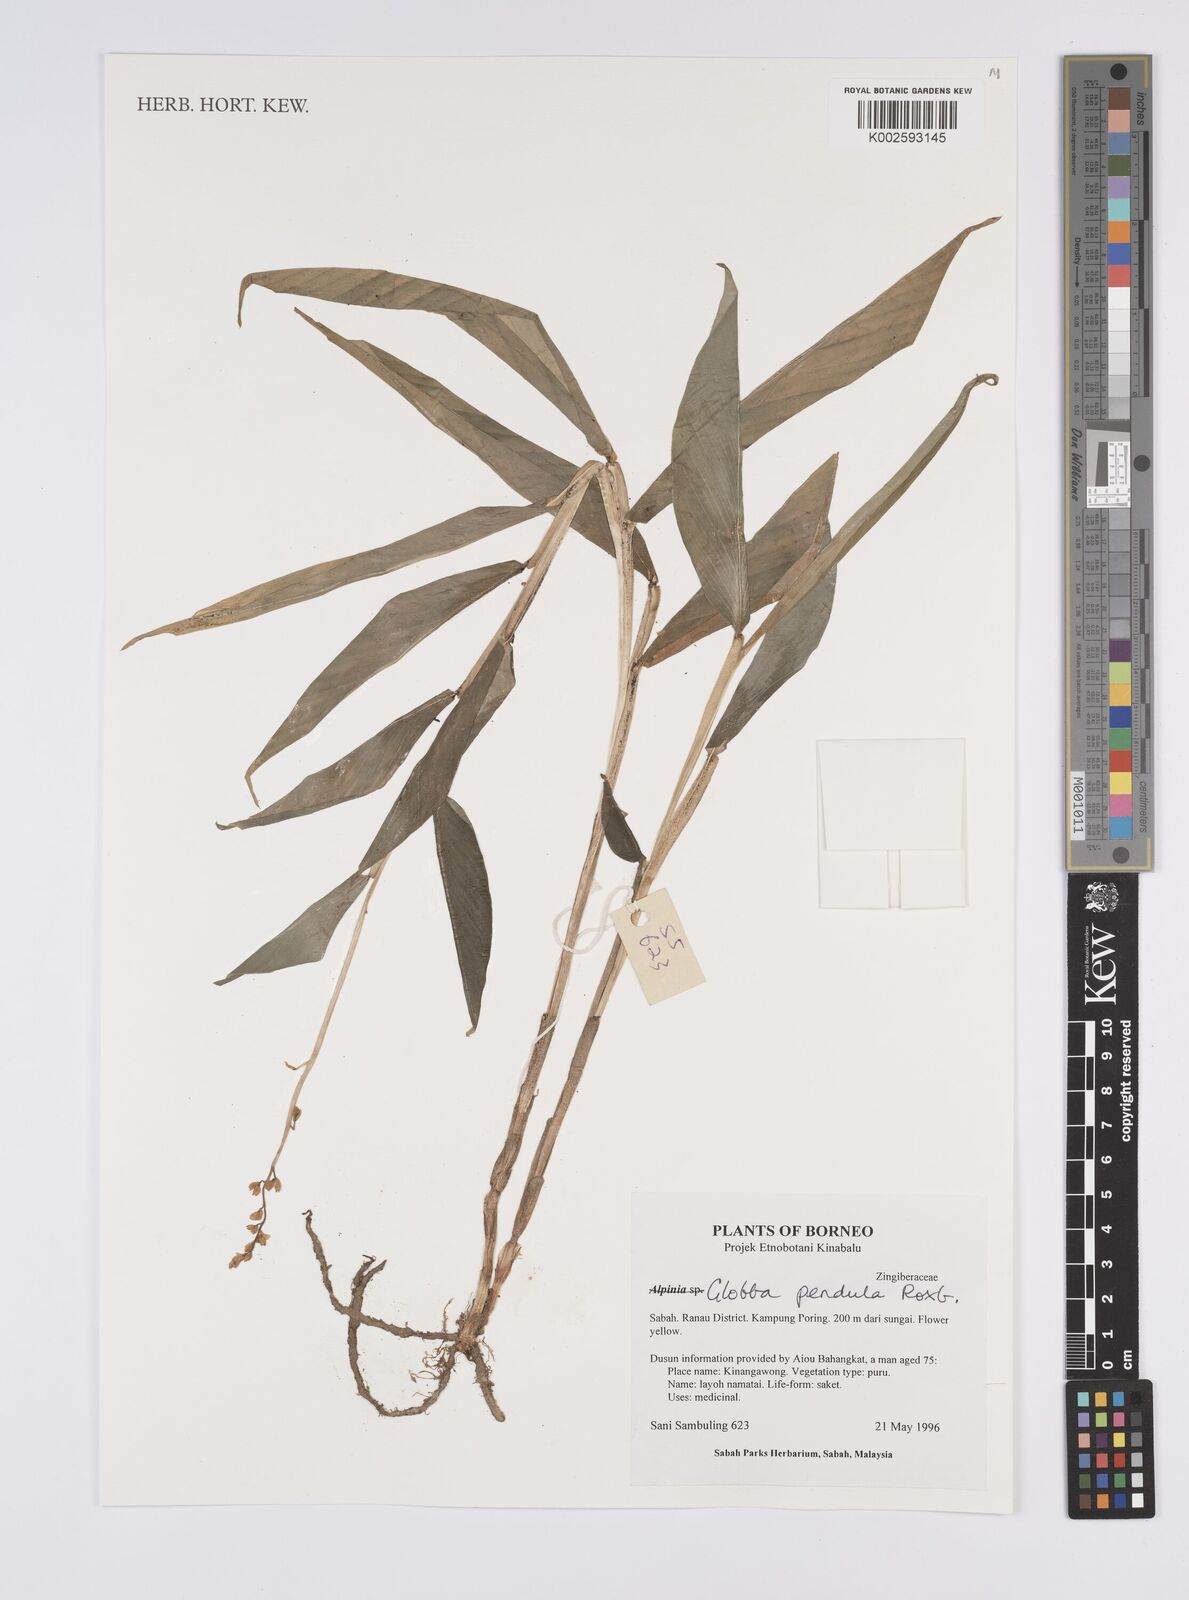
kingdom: Plantae
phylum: Tracheophyta
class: Liliopsida
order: Zingiberales
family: Zingiberaceae
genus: Globba
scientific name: Globba pendula
